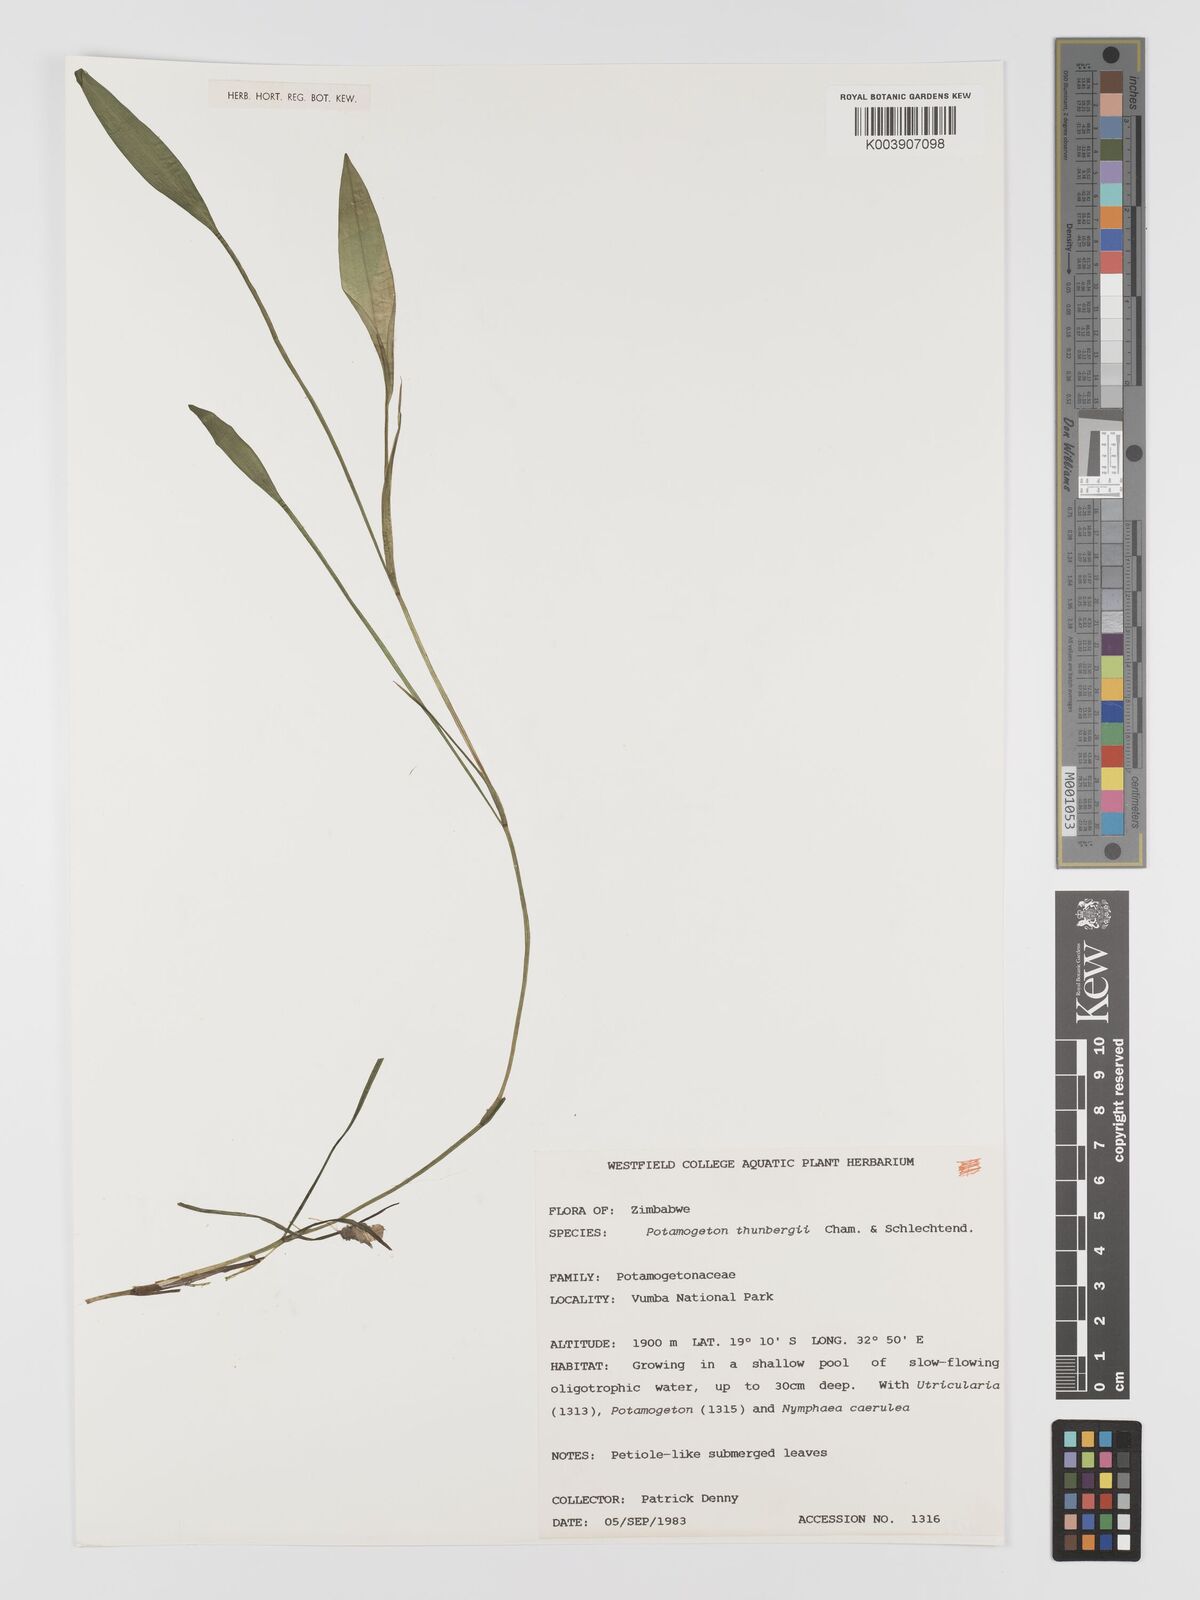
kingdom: Plantae
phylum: Tracheophyta
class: Liliopsida
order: Alismatales
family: Potamogetonaceae
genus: Potamogeton
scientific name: Potamogeton nodosus
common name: Loddon pondweed
